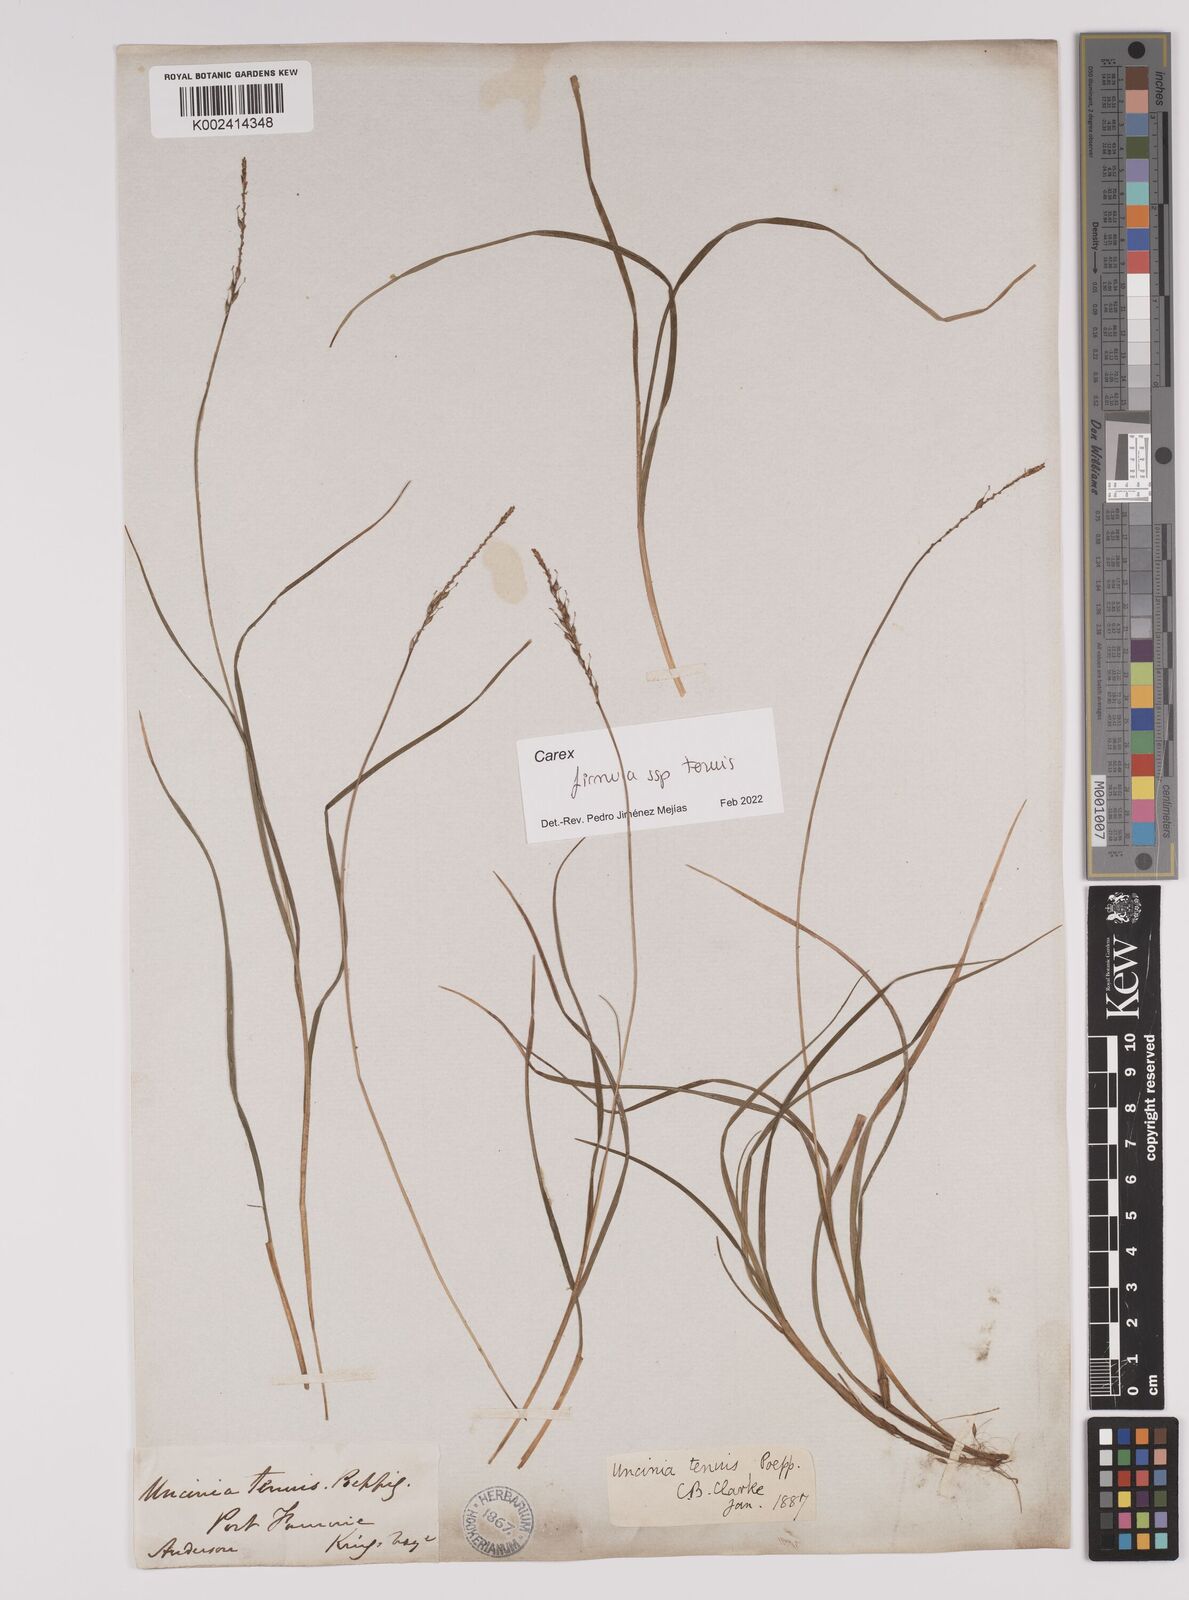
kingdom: Plantae
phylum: Tracheophyta
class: Liliopsida
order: Poales
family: Cyperaceae
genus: Carex
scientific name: Carex firmula
